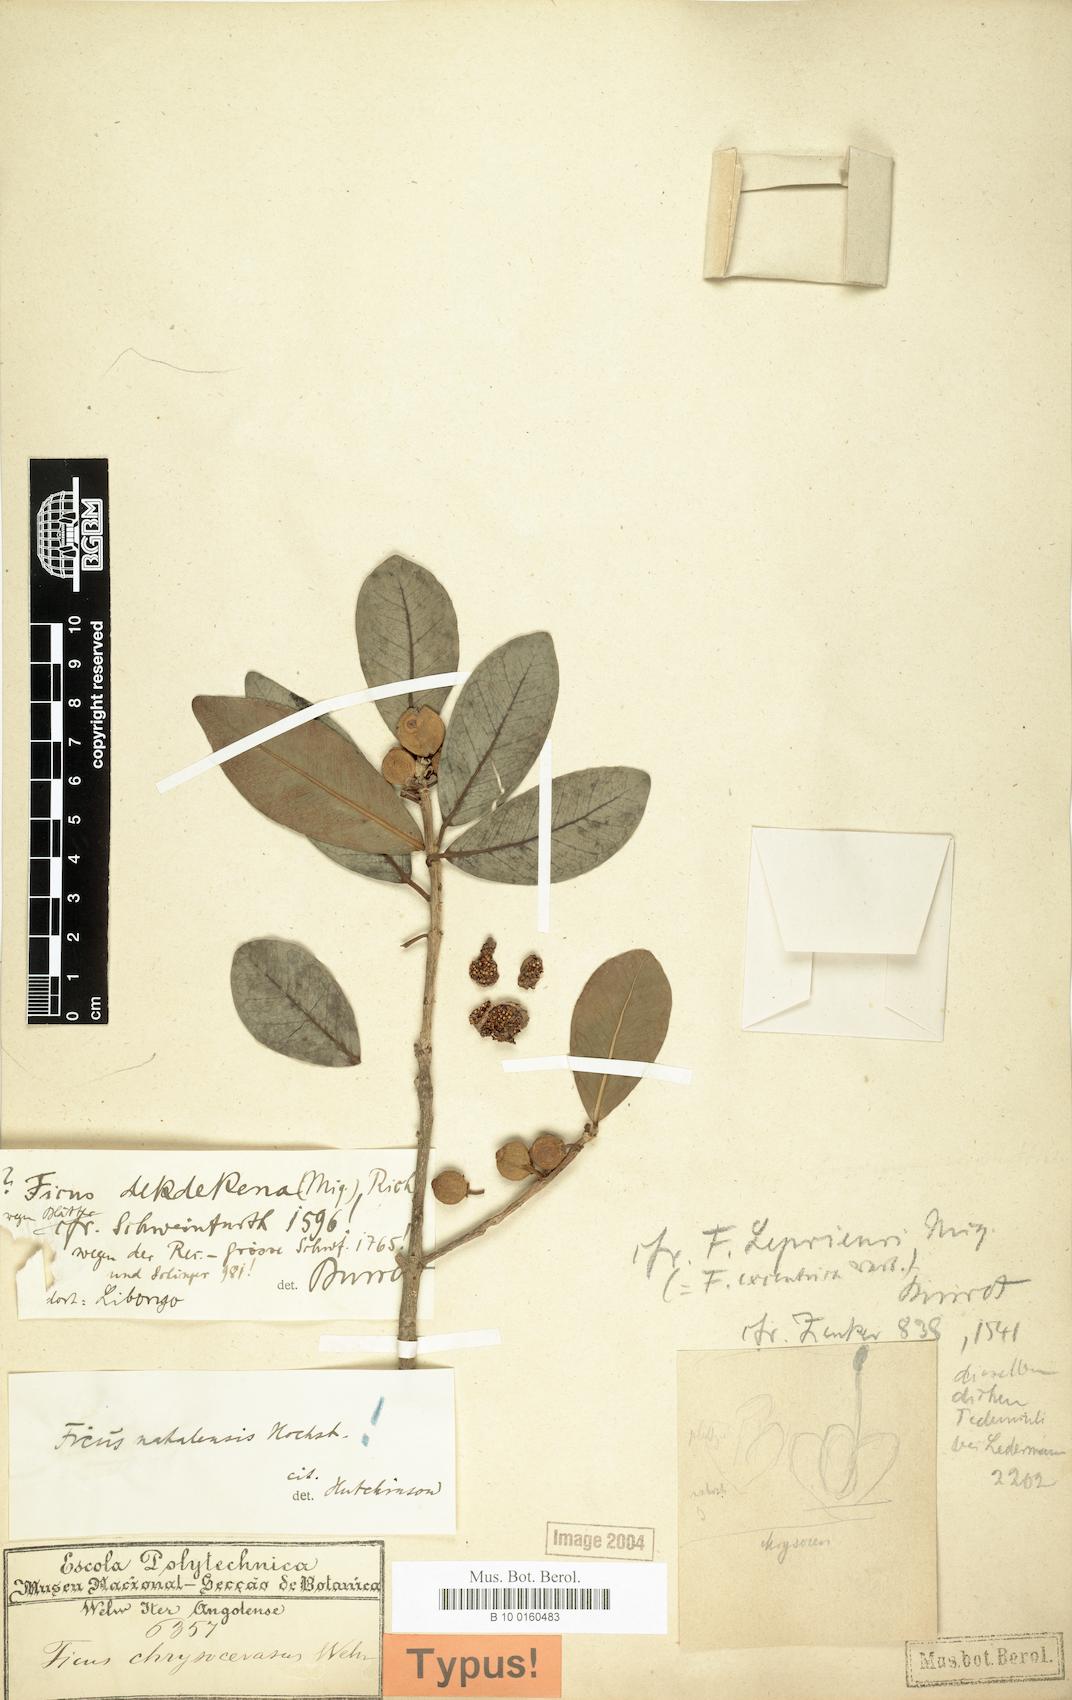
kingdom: Plantae
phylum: Tracheophyta
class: Magnoliopsida
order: Rosales
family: Moraceae
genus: Ficus
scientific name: Ficus natalensis
